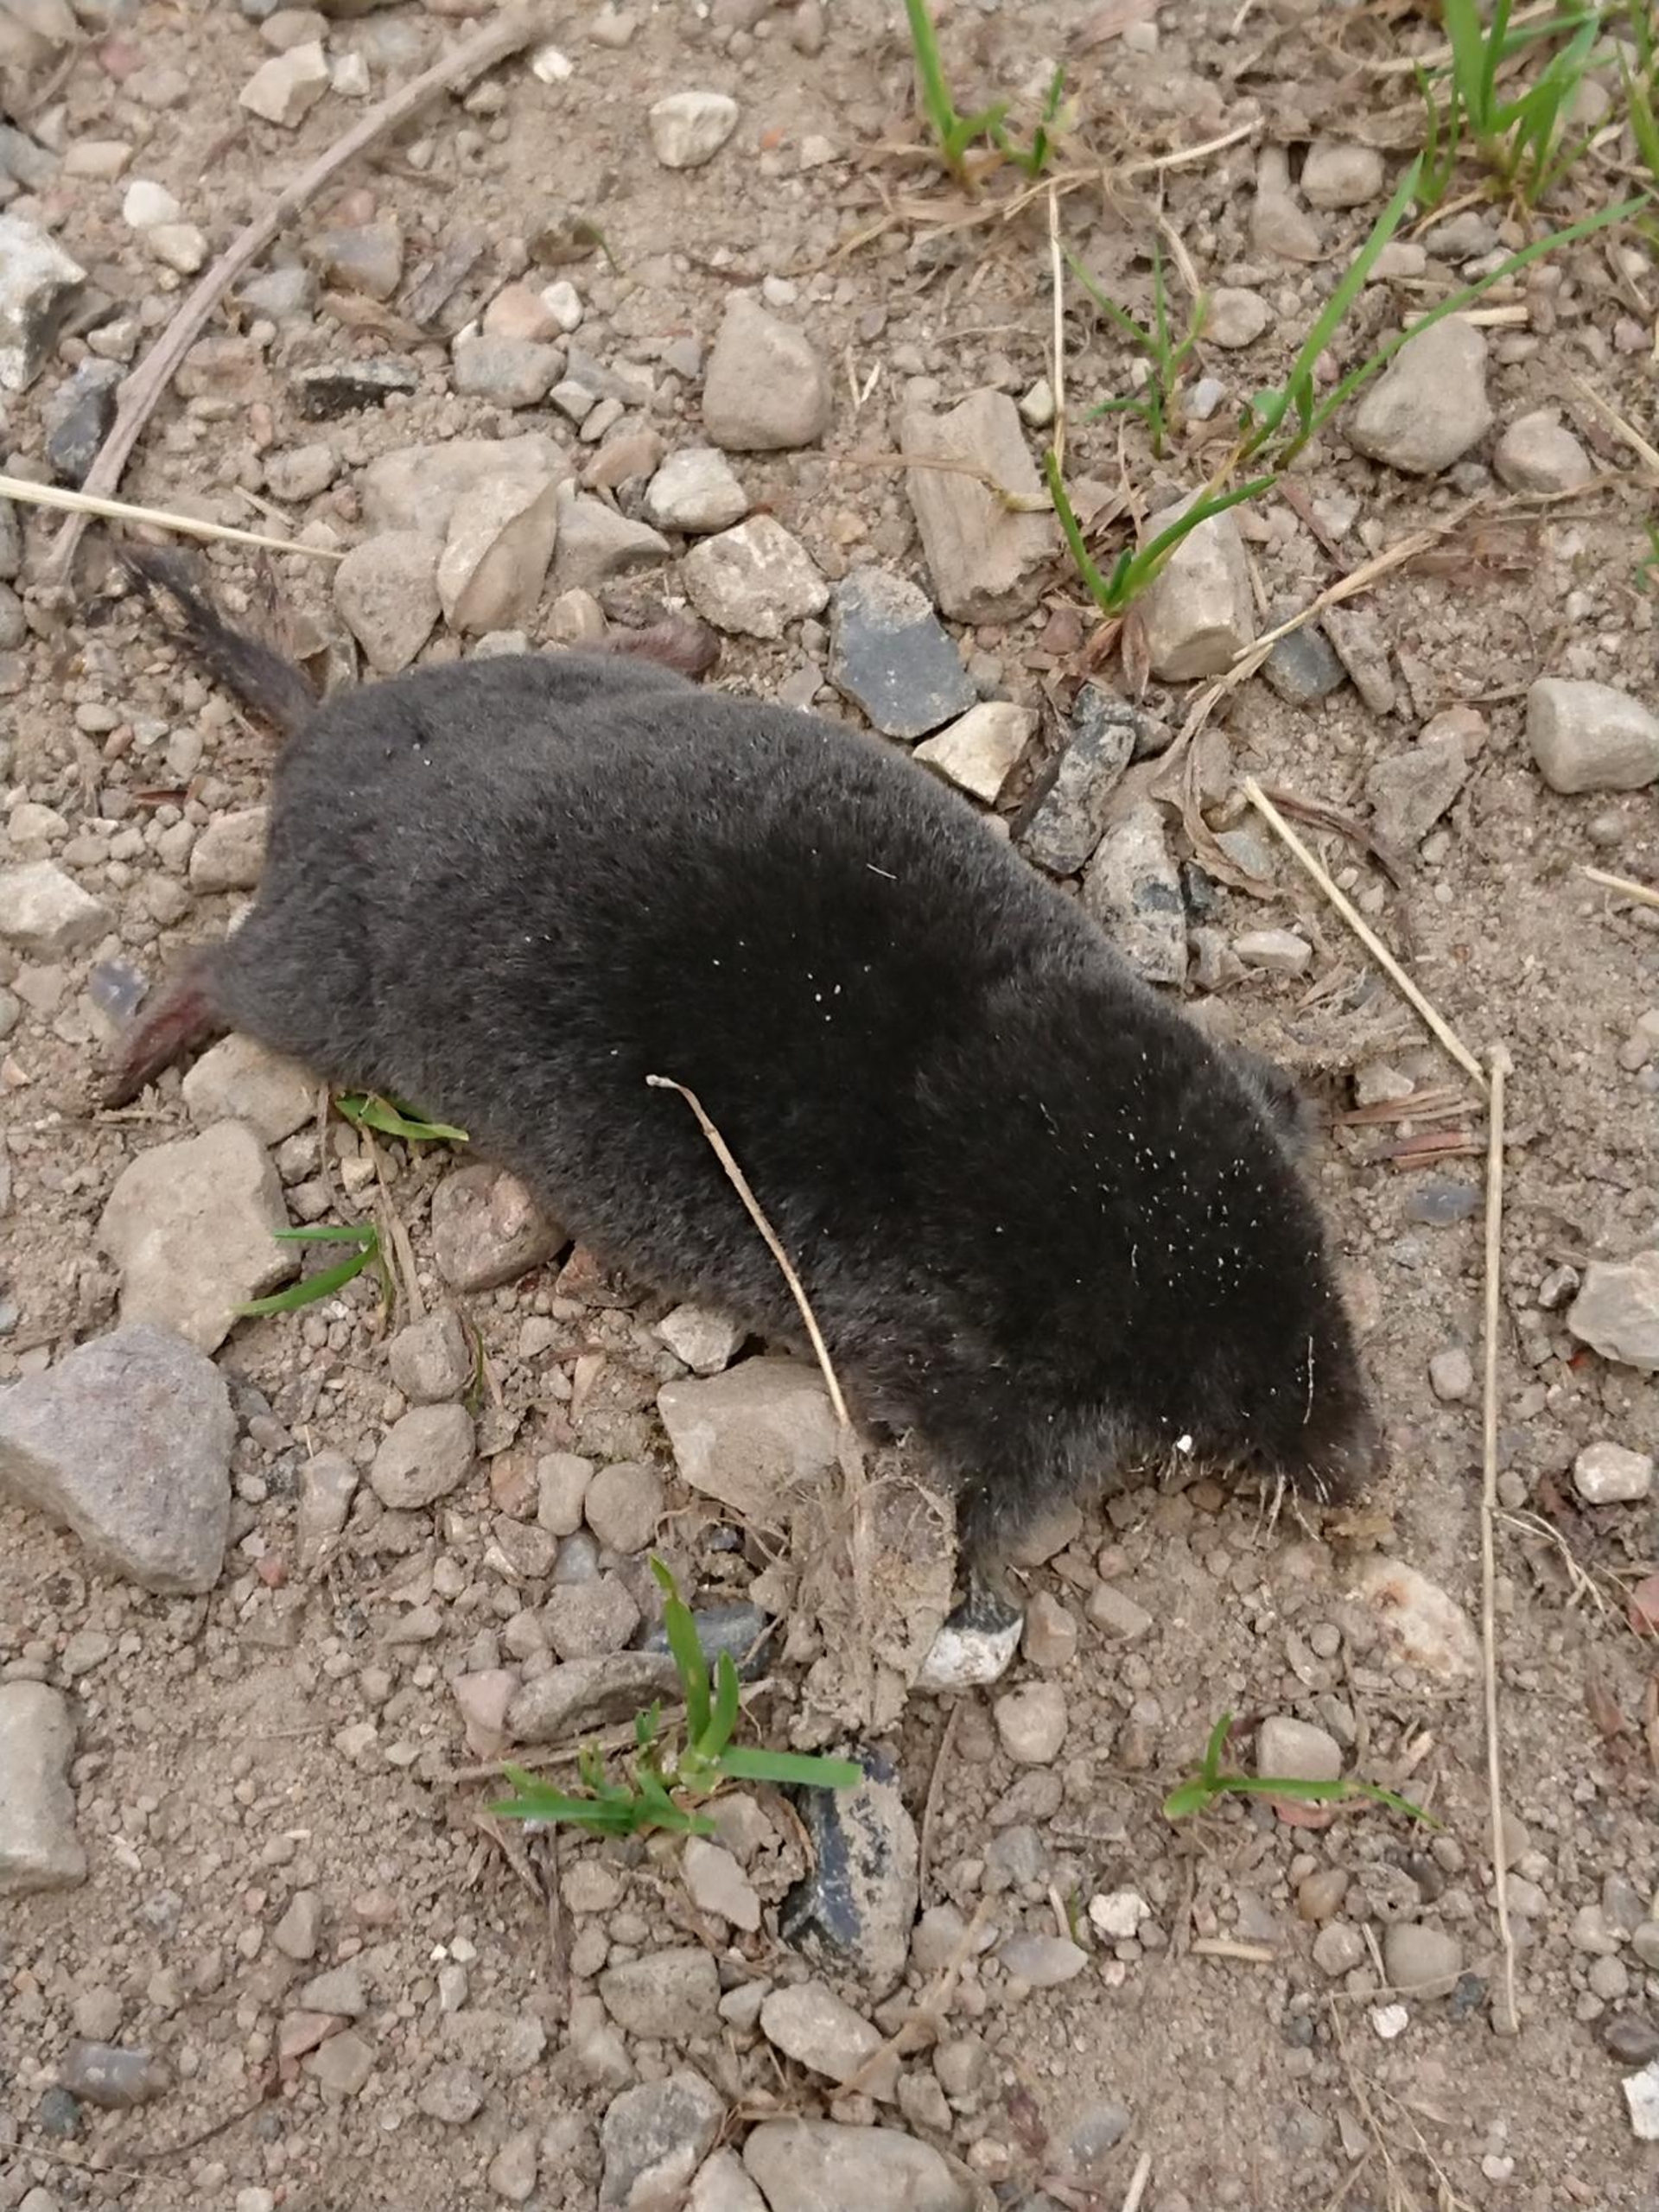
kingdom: Animalia
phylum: Chordata
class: Mammalia
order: Soricomorpha
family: Talpidae
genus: Talpa
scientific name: Talpa europaea
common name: Muldvarp
